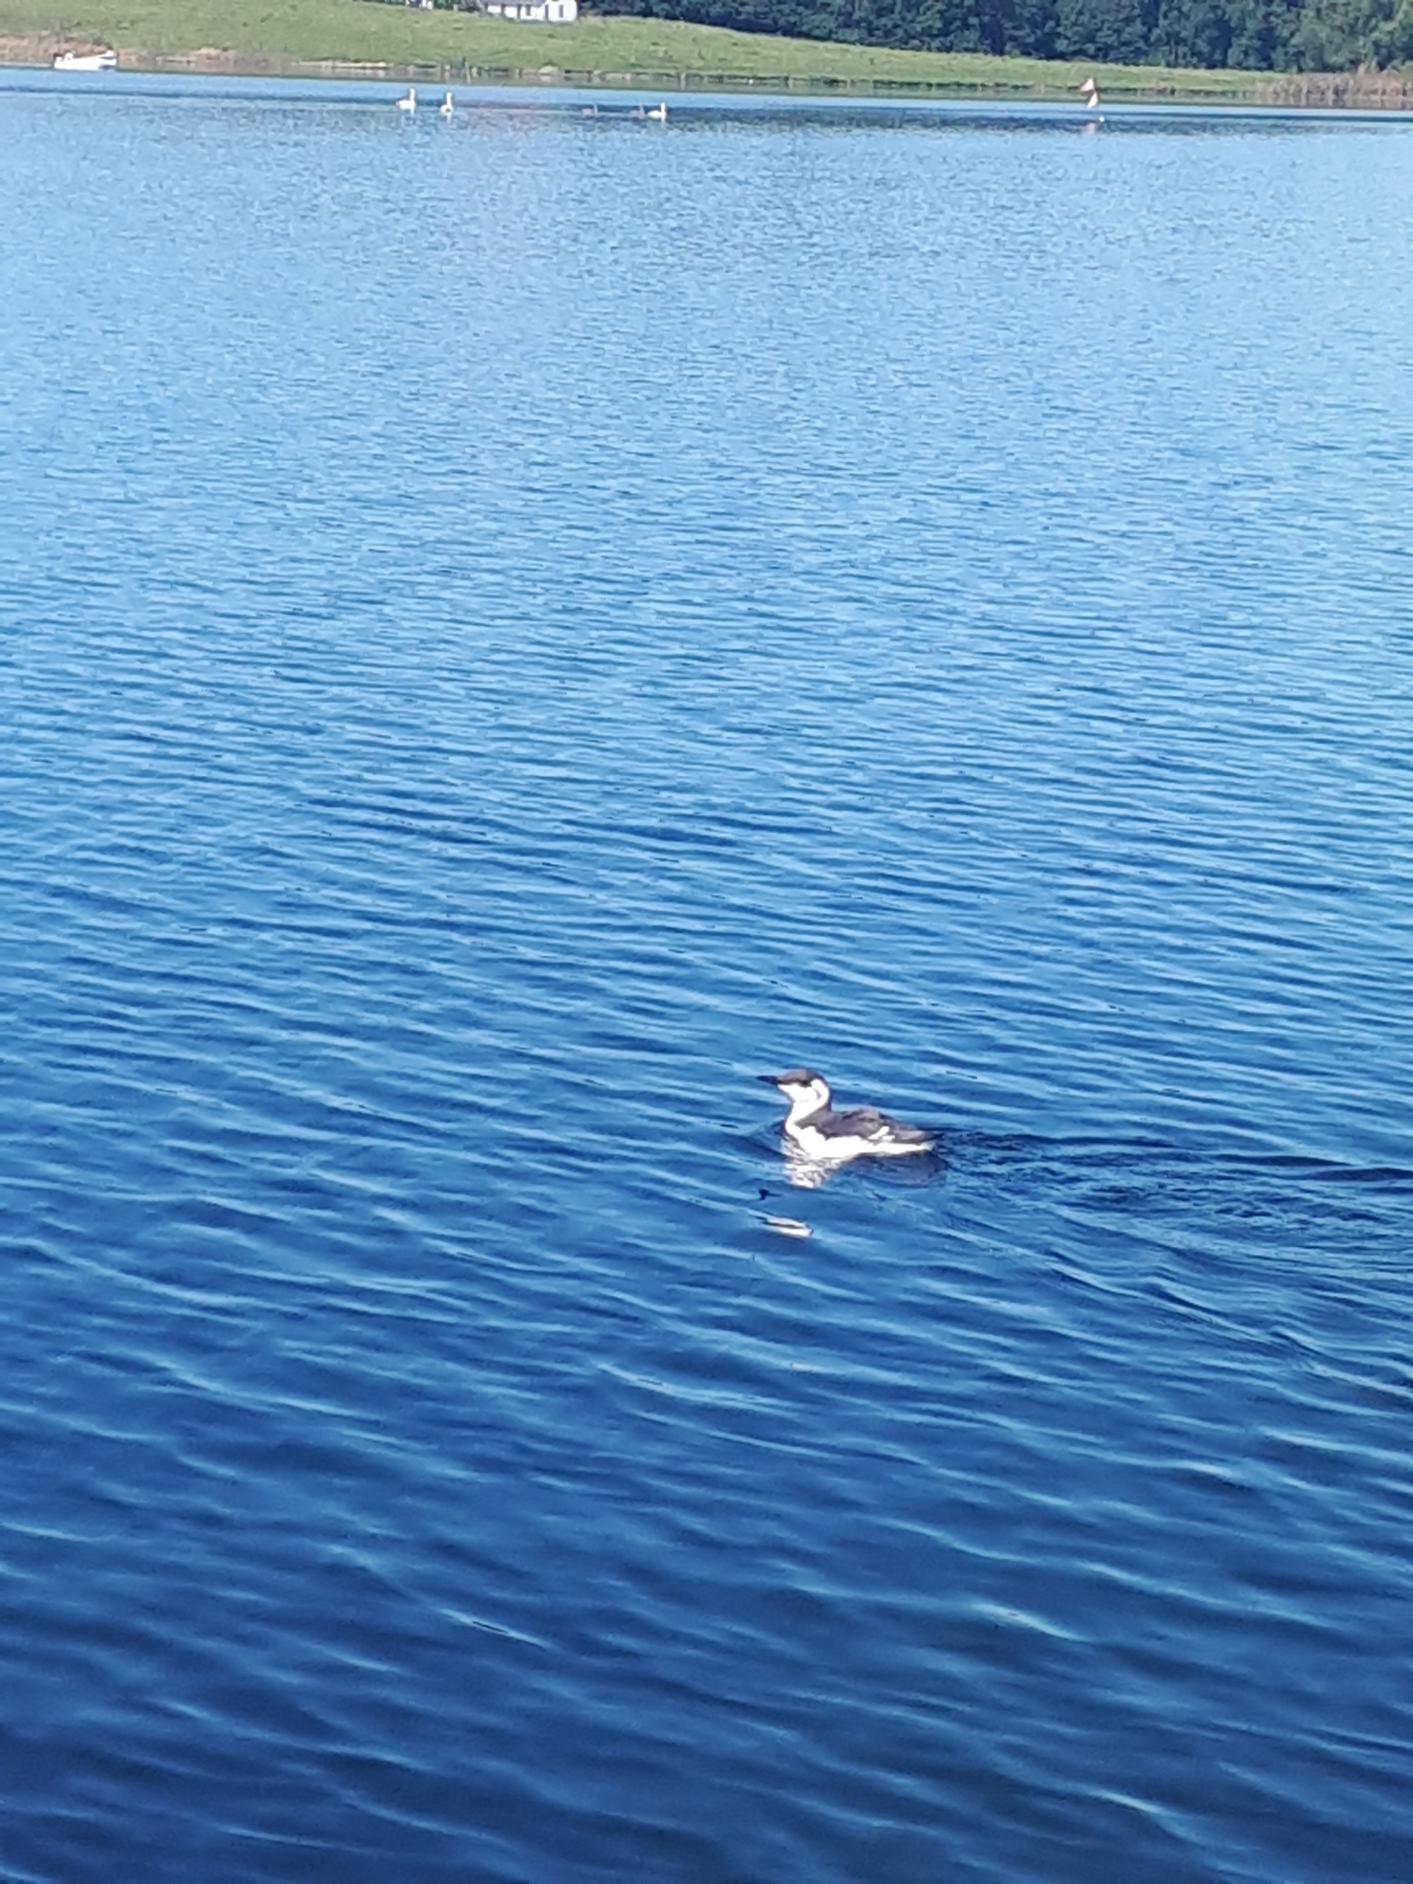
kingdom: Animalia
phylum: Chordata
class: Aves
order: Charadriiformes
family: Alcidae
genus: Uria
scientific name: Uria aalge
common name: Lomvie
